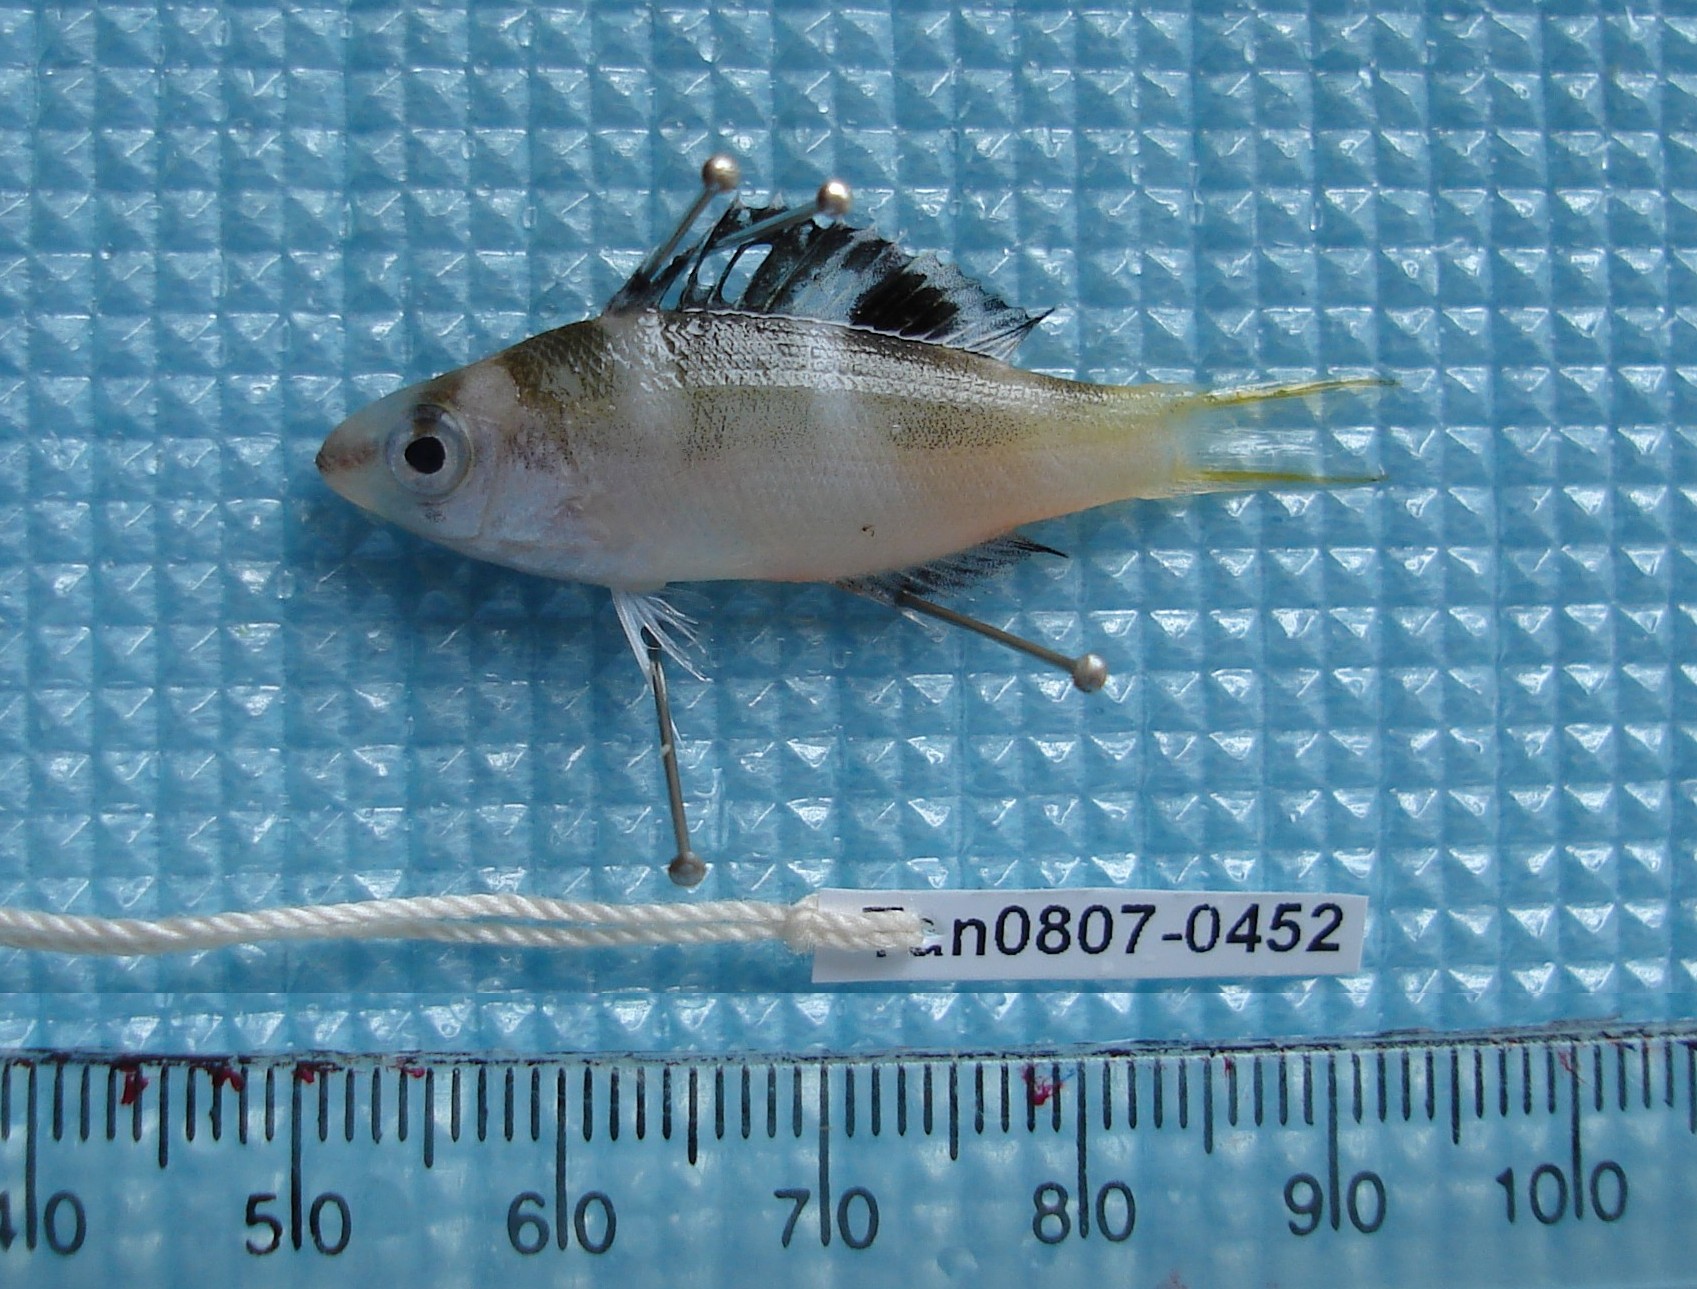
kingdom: Animalia
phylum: Chordata
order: Perciformes
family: Lethrinidae
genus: Monotaxis
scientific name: Monotaxis grandoculis
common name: Bigeye emperor
